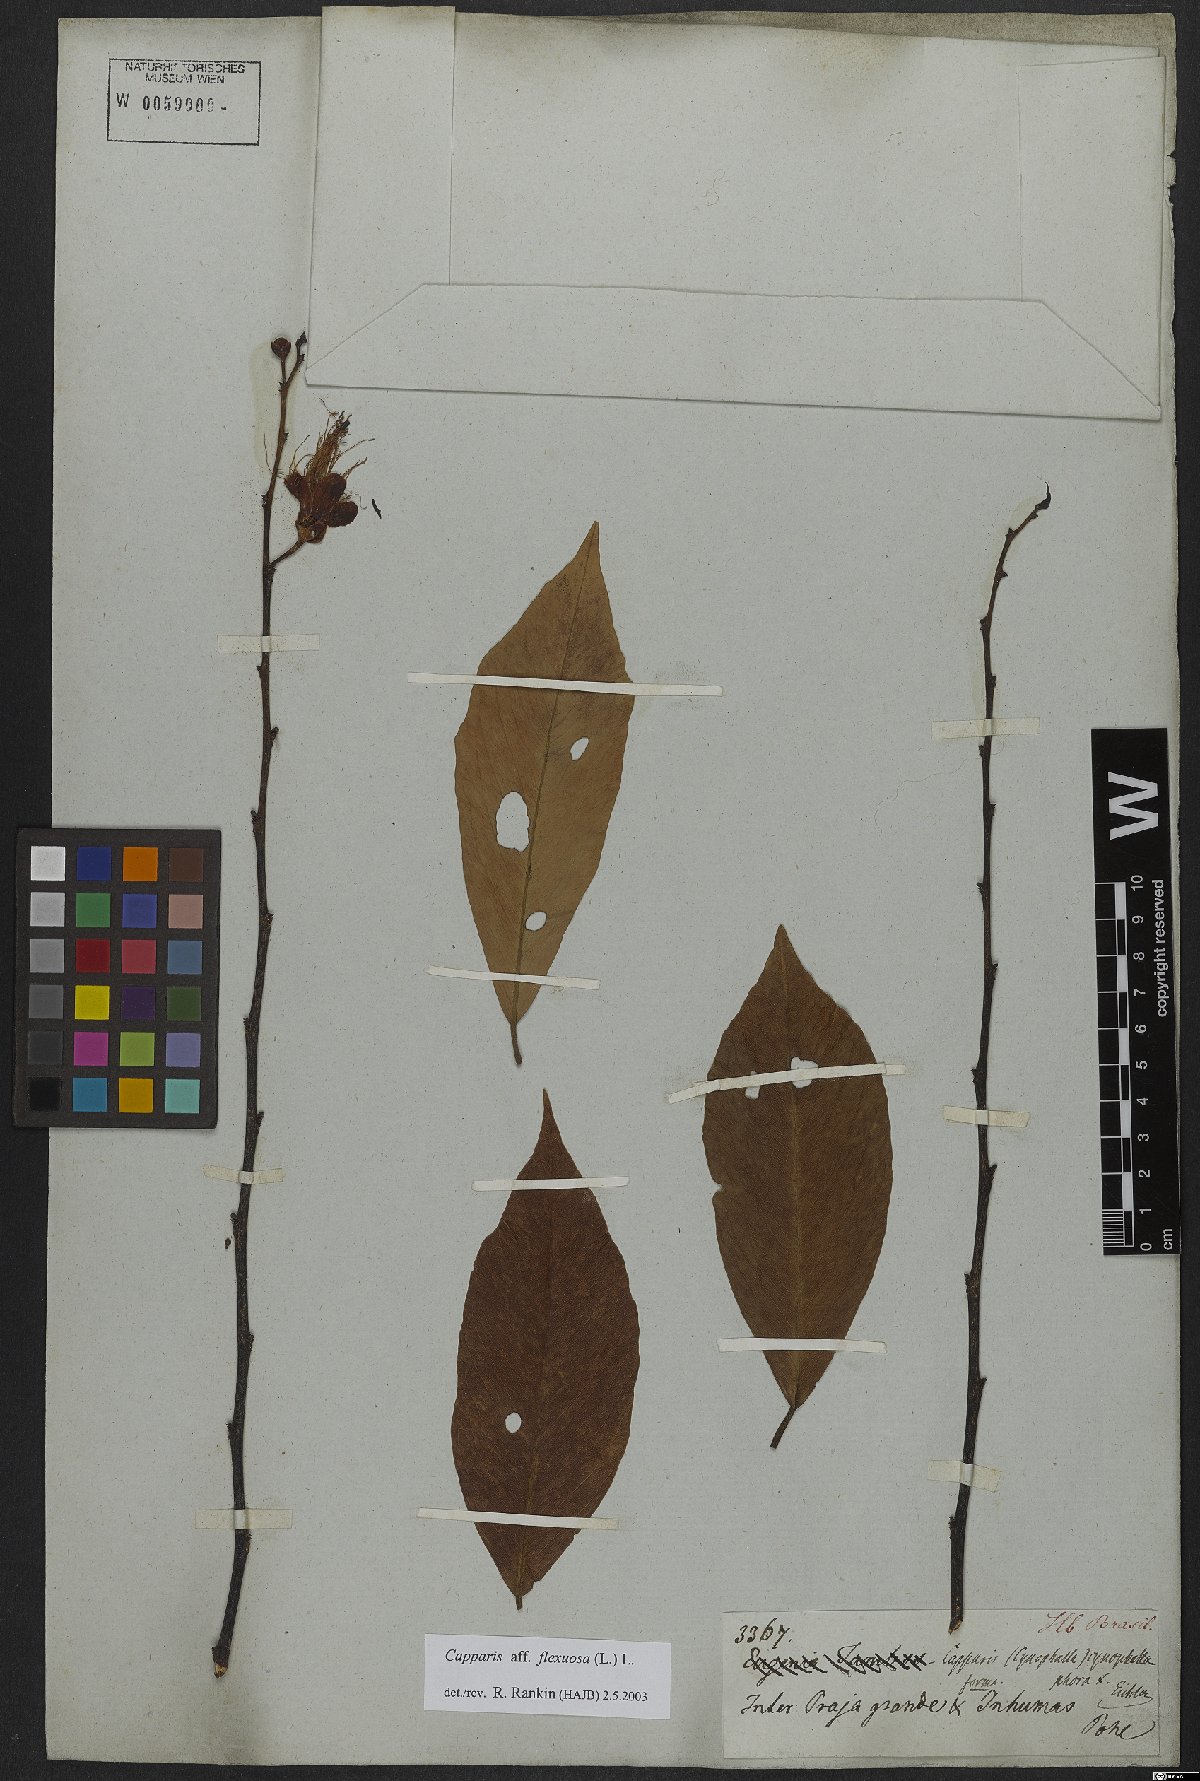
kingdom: Plantae
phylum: Tracheophyta
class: Magnoliopsida
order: Brassicales
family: Capparaceae
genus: Cynophalla
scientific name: Cynophalla flexuosa
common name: Capertree
